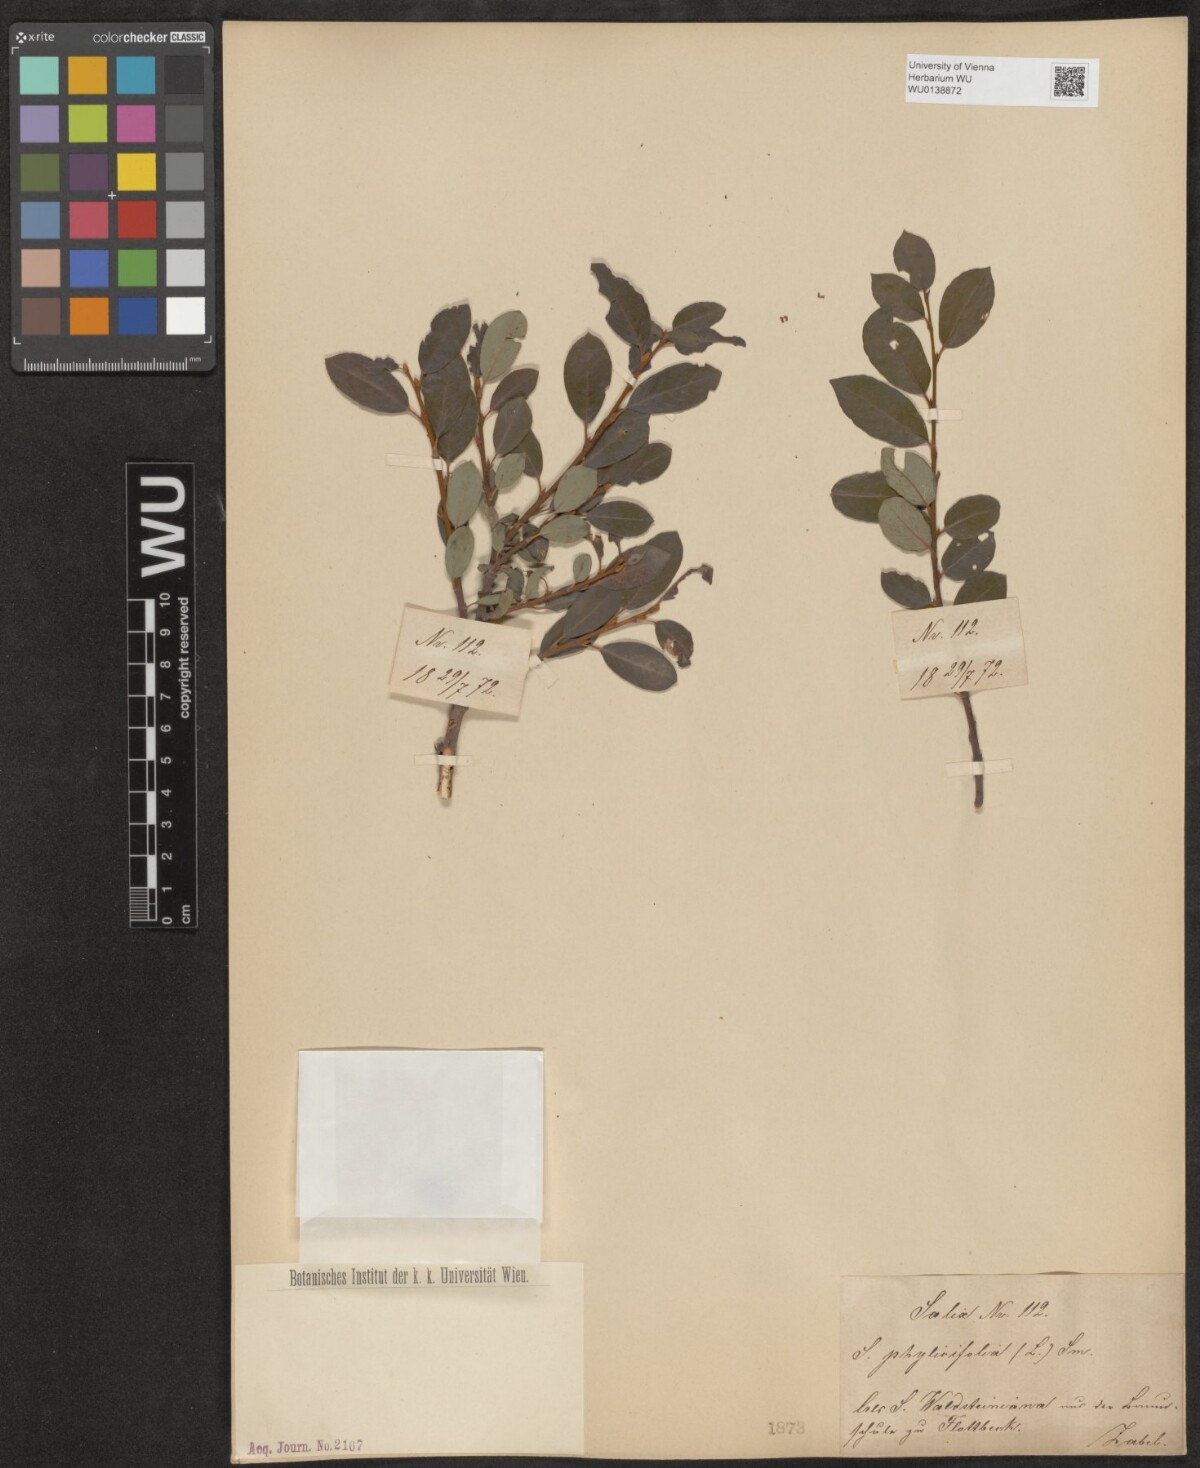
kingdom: Plantae
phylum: Tracheophyta
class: Magnoliopsida
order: Malpighiales
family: Salicaceae
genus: Salix
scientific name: Salix phylicifolia
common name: Tea-leaved willow
